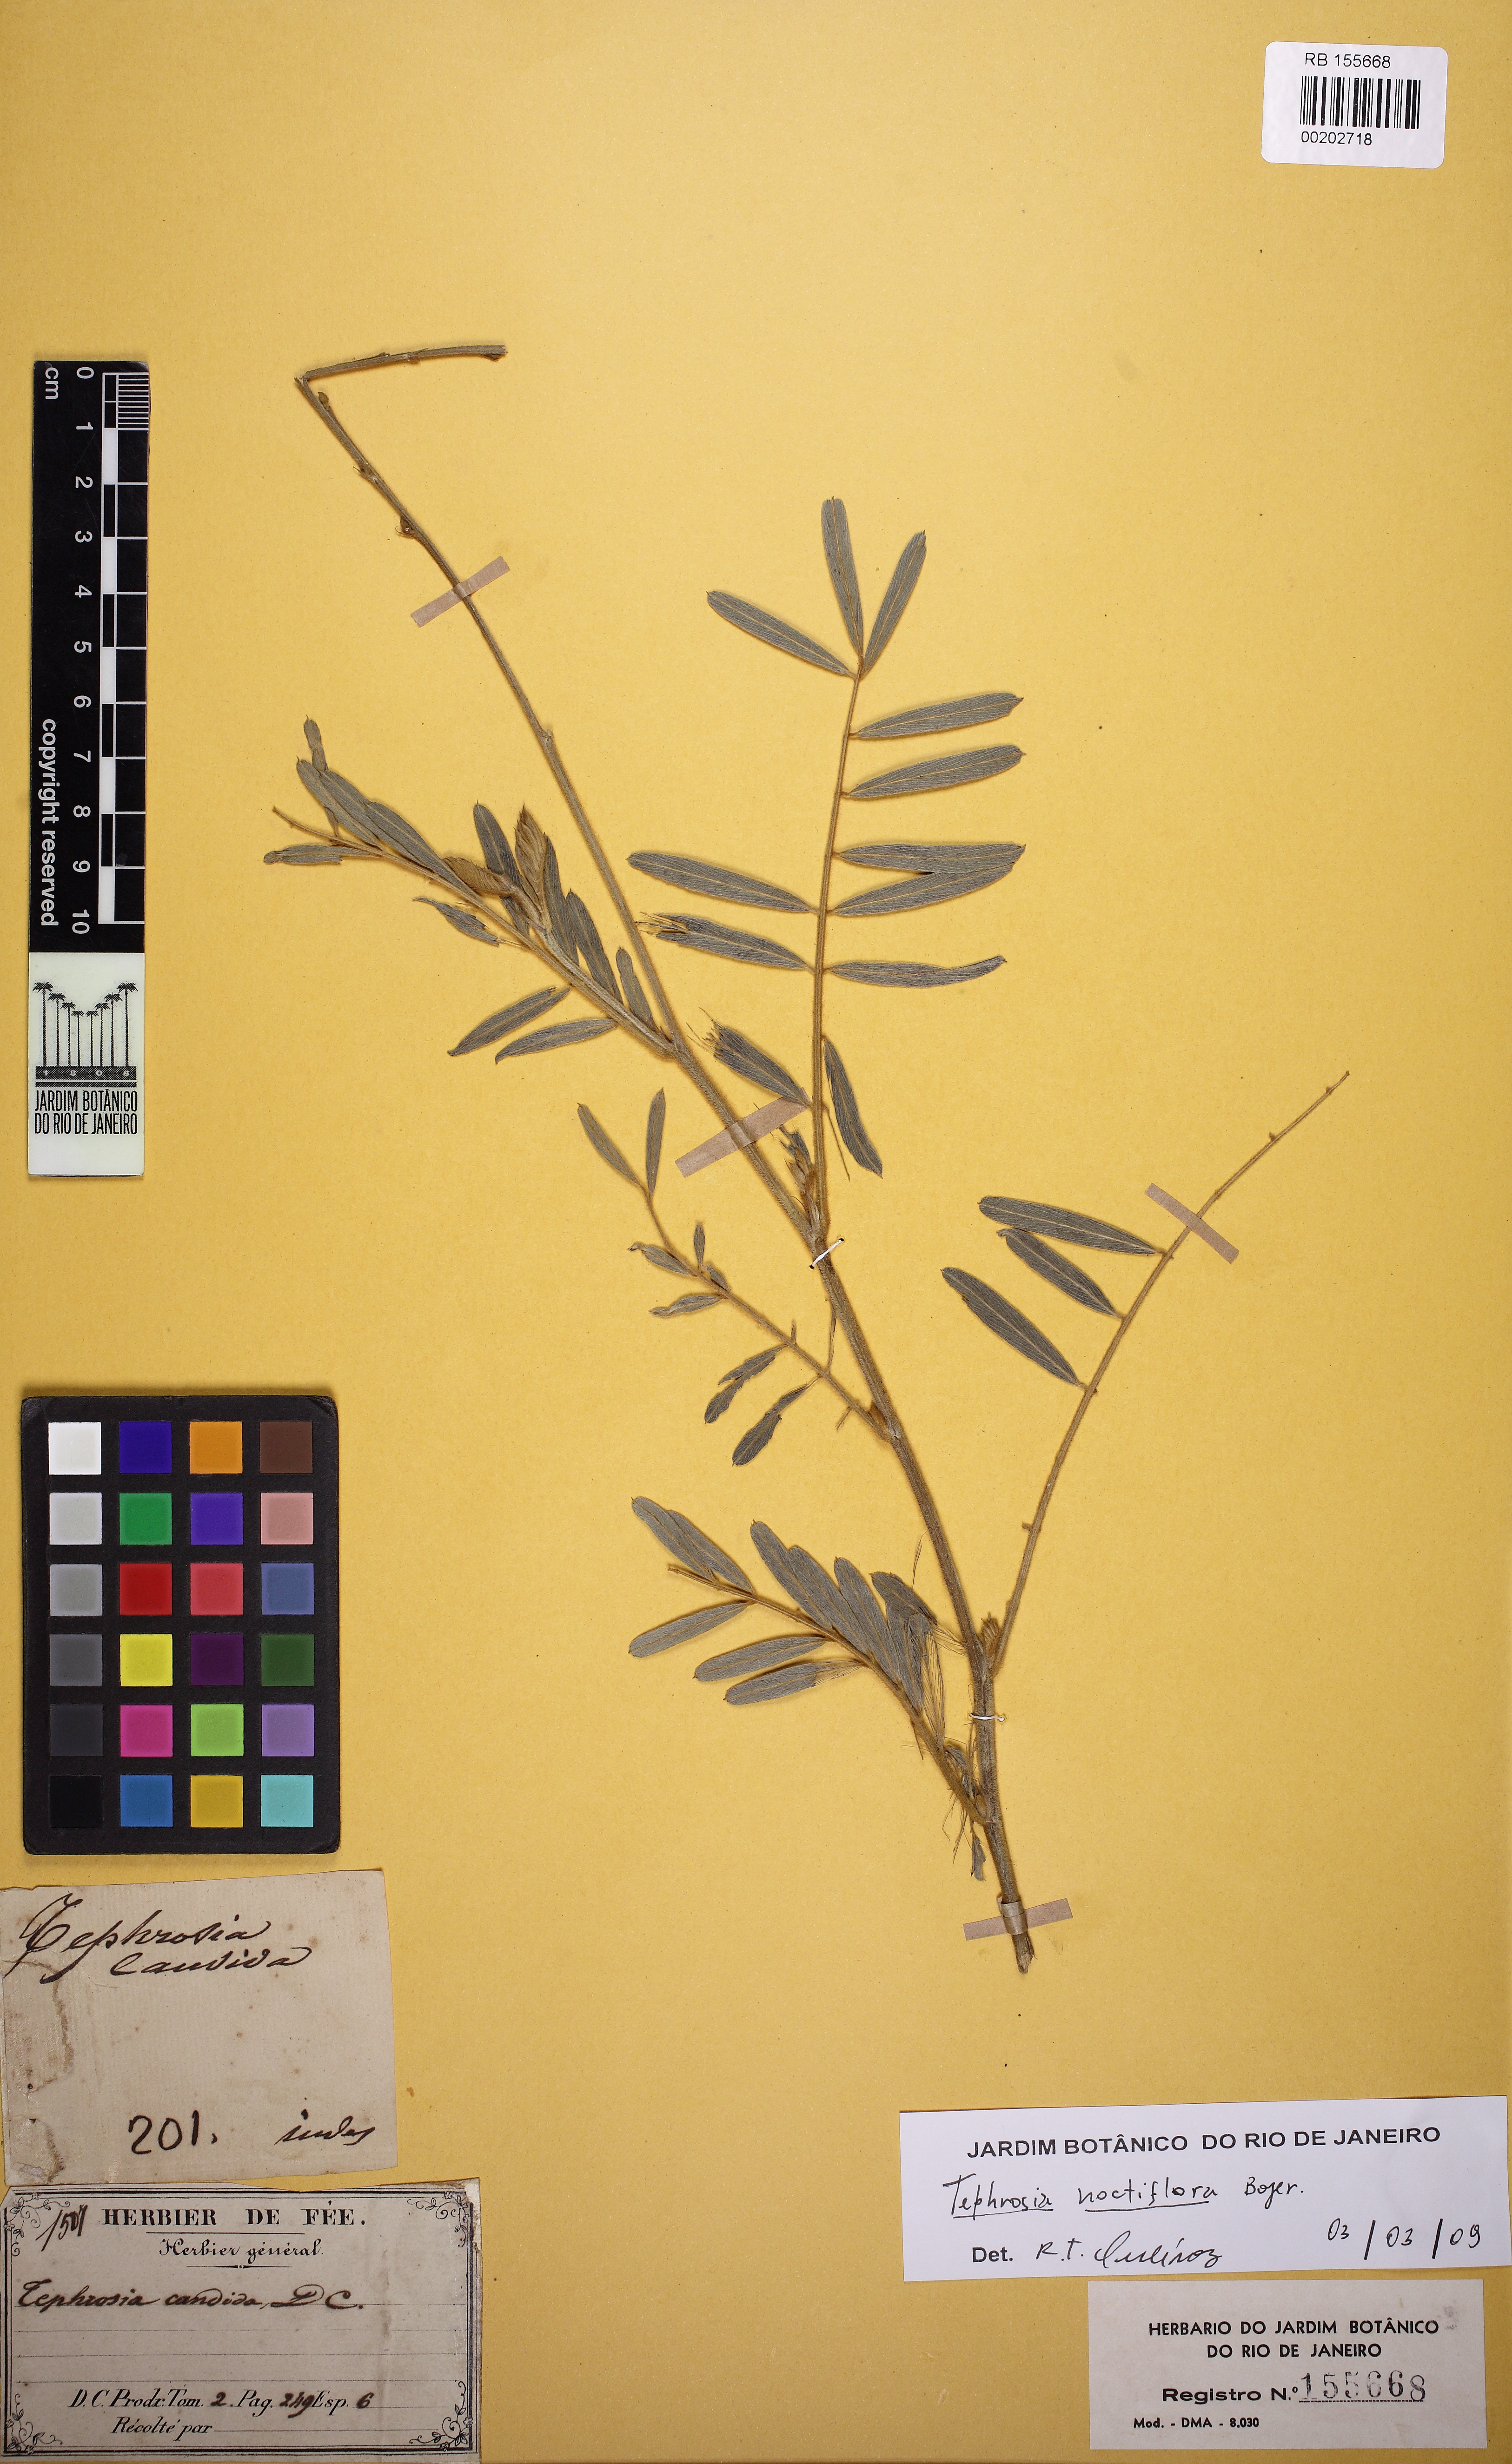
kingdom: Plantae
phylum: Tracheophyta
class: Magnoliopsida
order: Fabales
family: Fabaceae
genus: Tephrosia
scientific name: Tephrosia noctiflora
